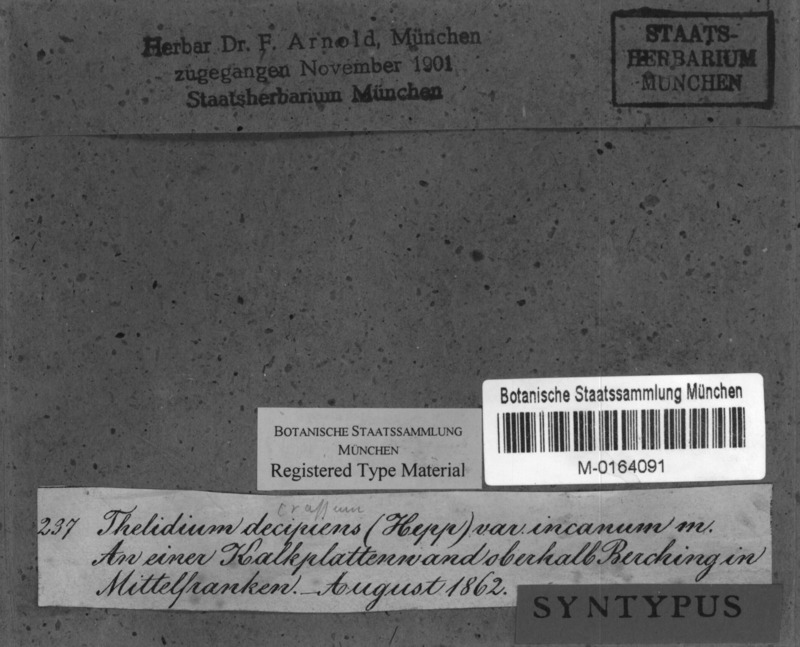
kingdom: Fungi
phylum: Ascomycota
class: Eurotiomycetes
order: Verrucariales
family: Verrucariaceae
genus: Thelidium
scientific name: Thelidium decipiens
